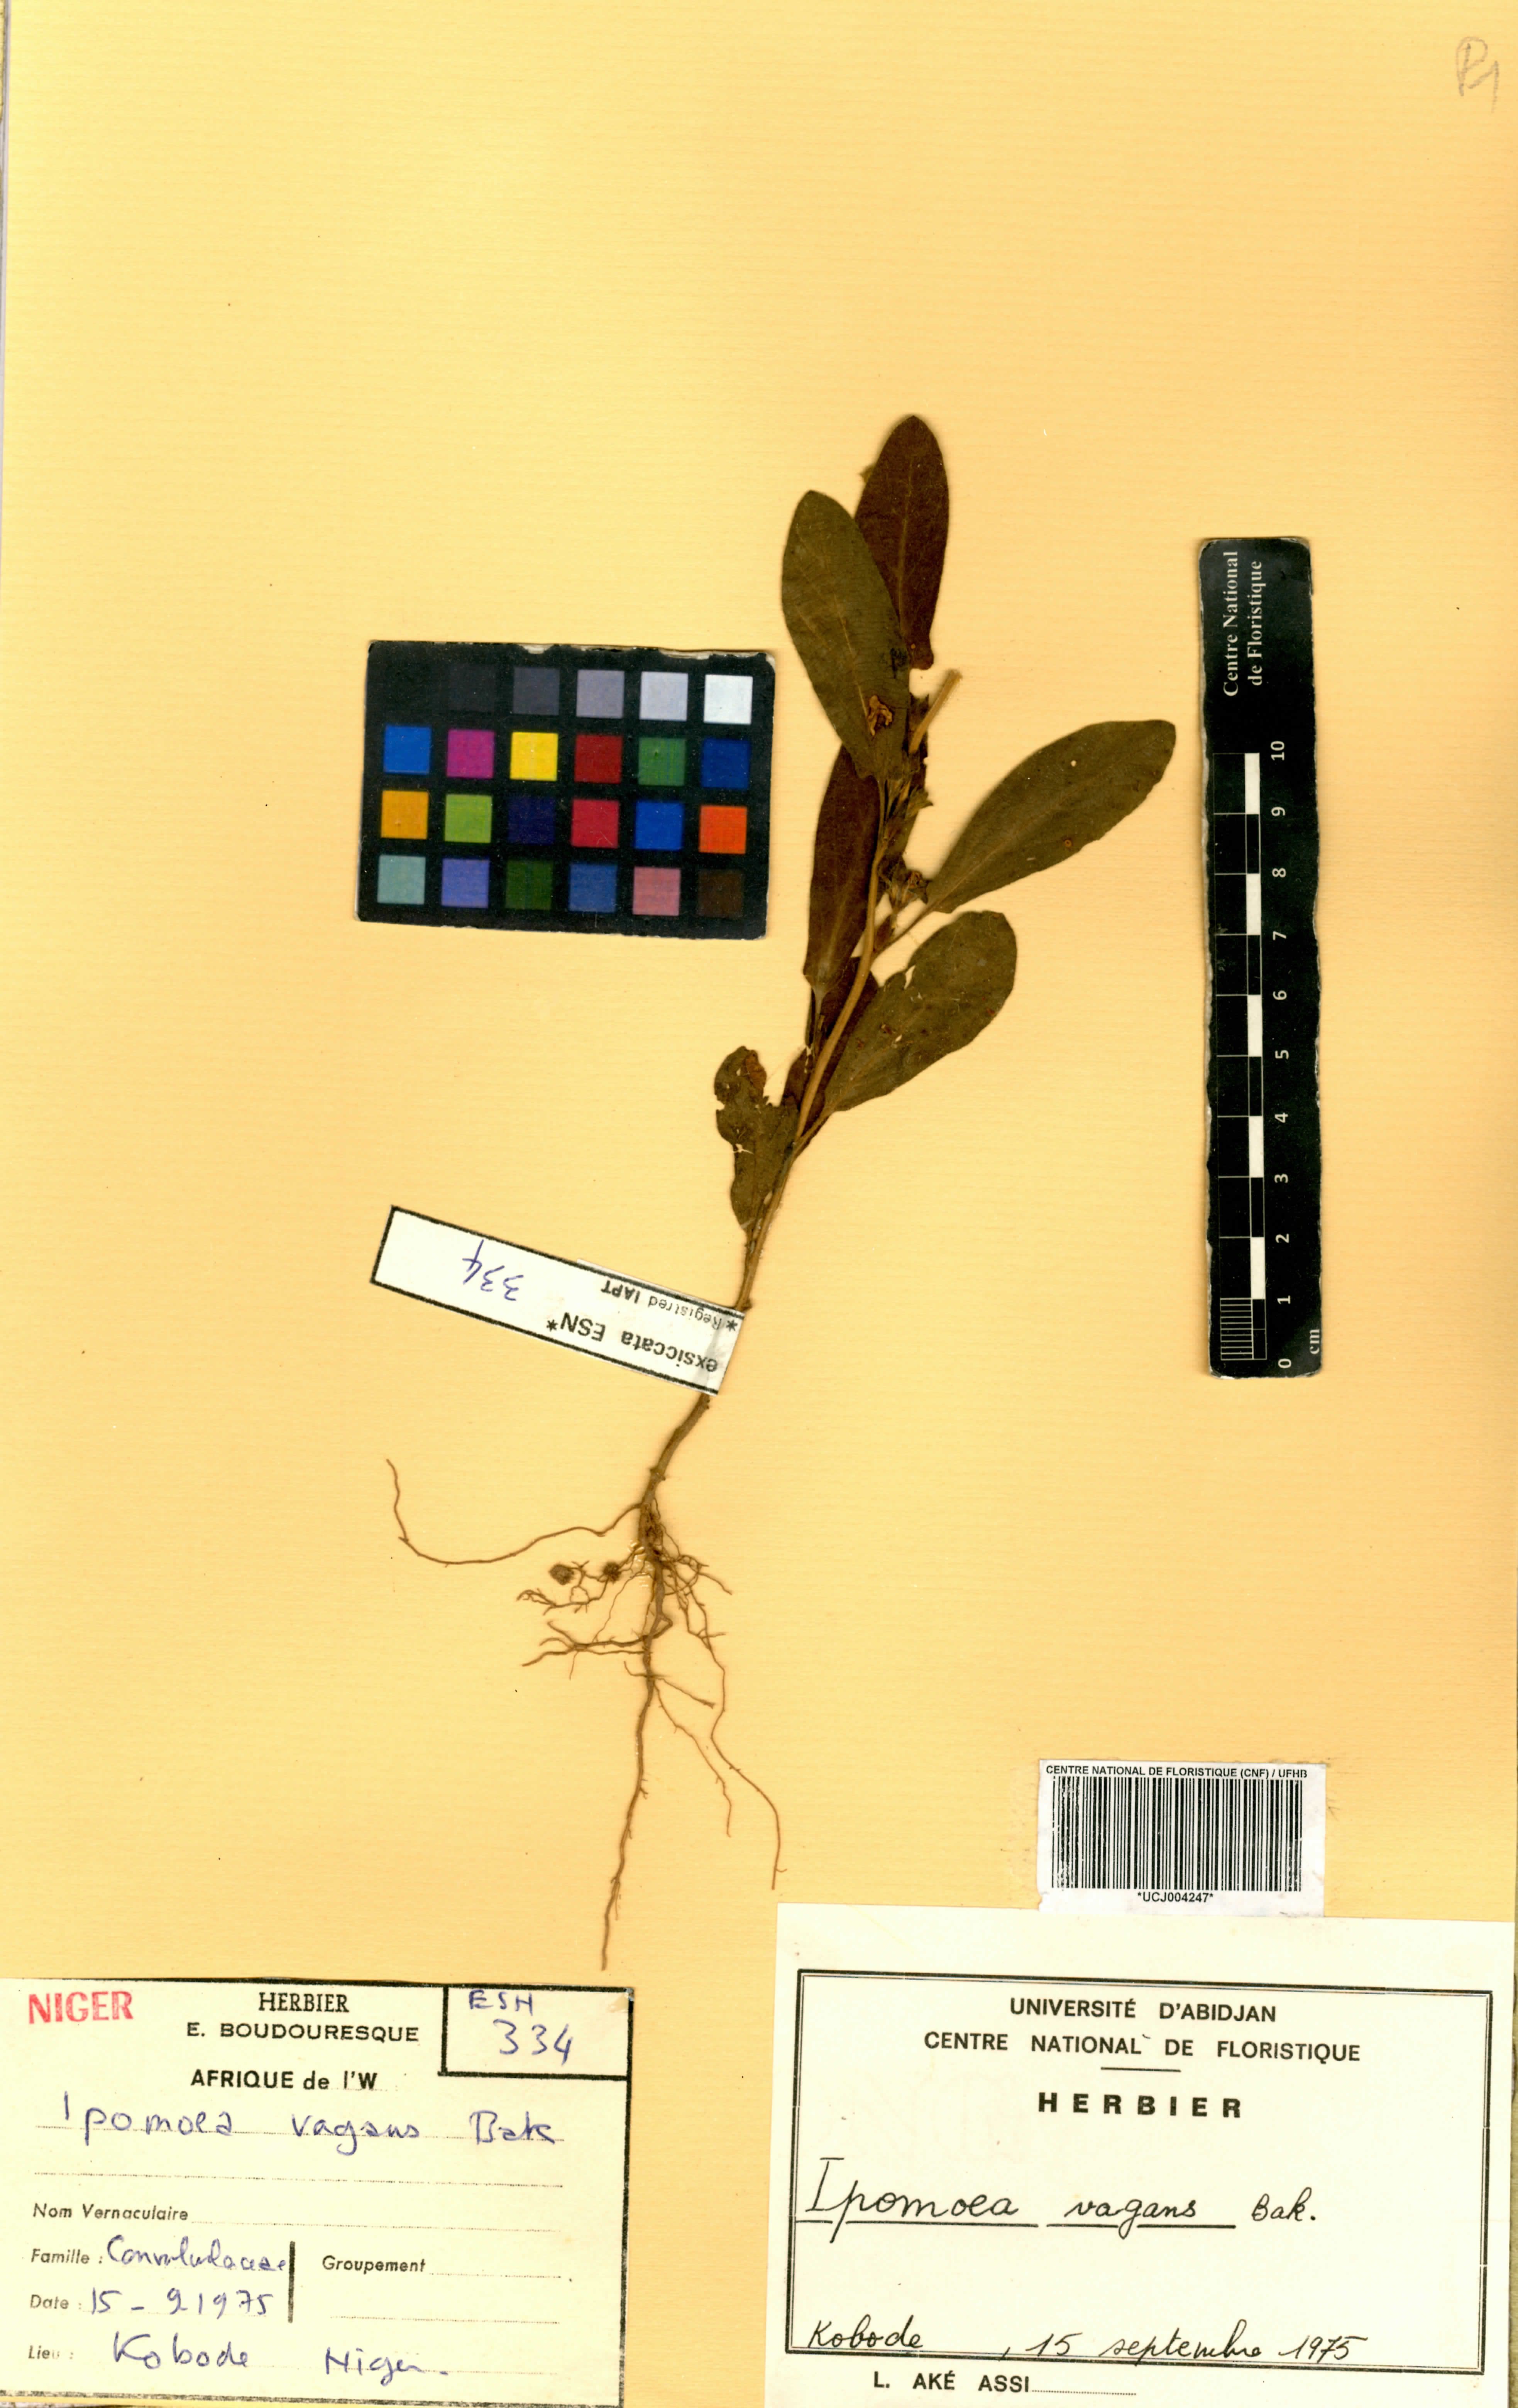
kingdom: Plantae
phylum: Tracheophyta
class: Magnoliopsida
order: Solanales
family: Convolvulaceae
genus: Ipomoea
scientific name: Ipomoea vagans
